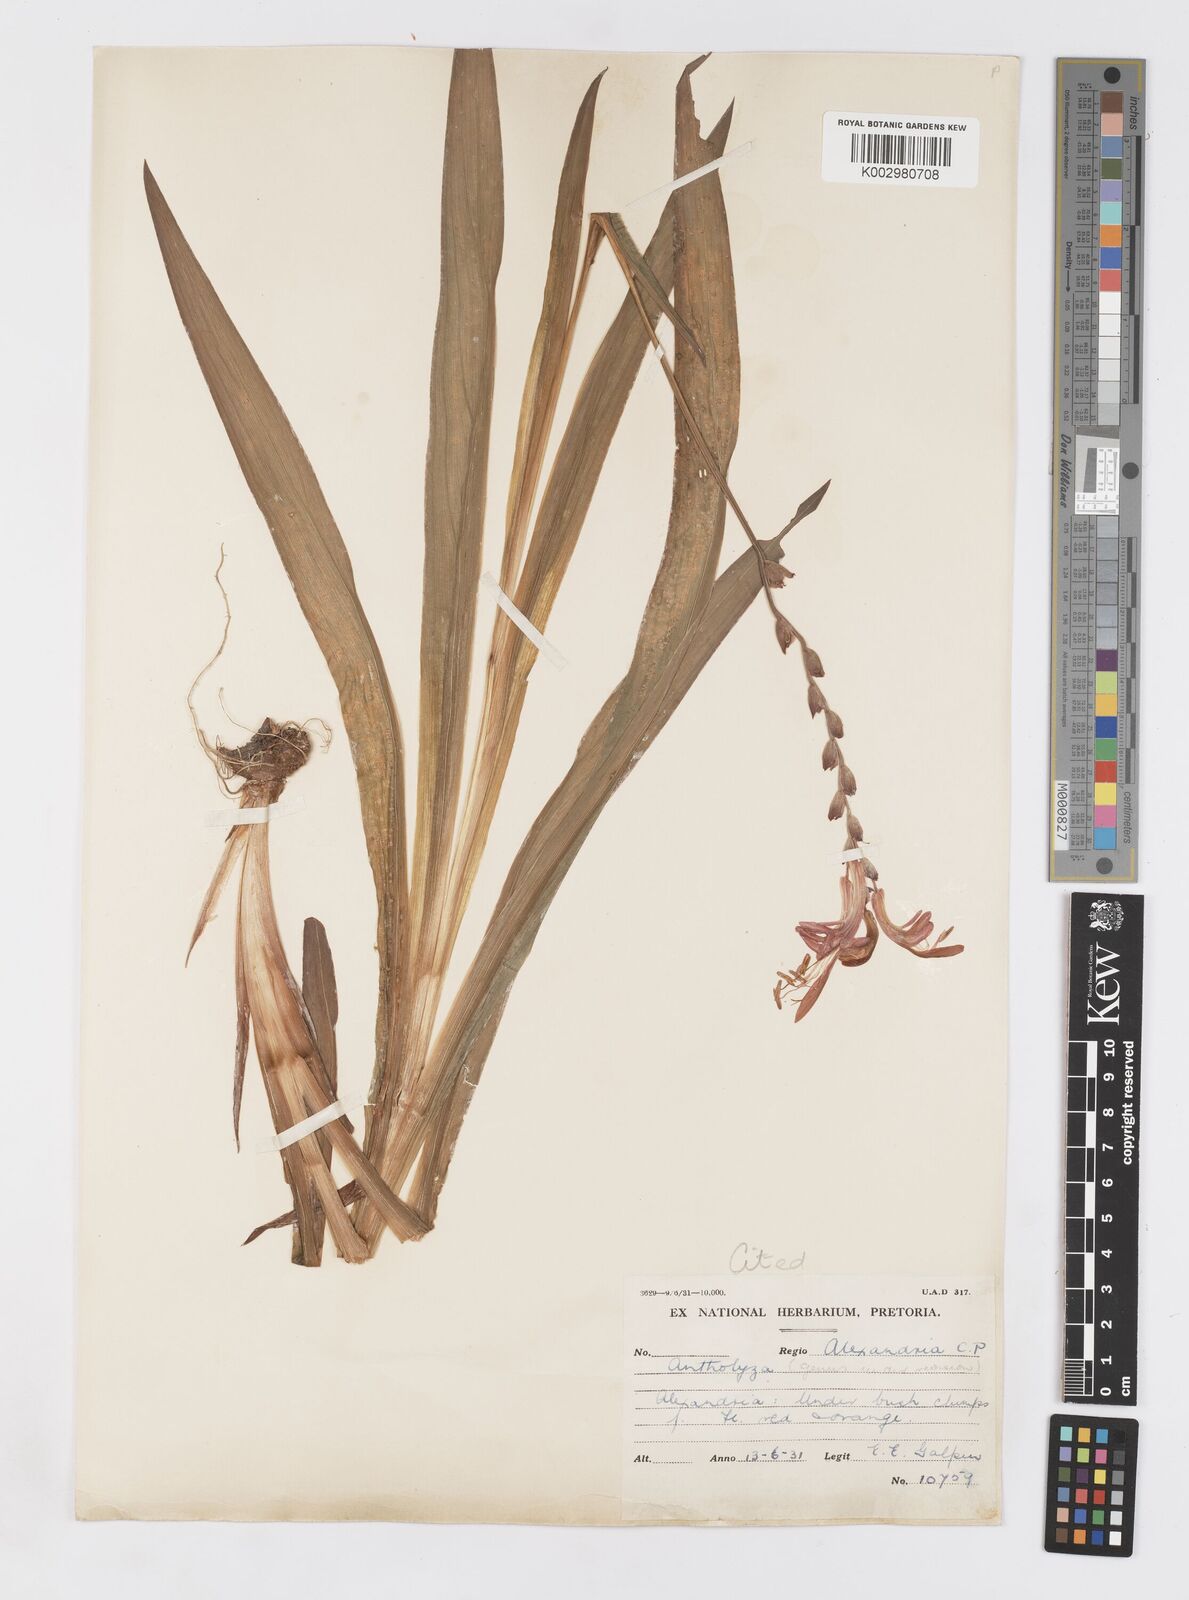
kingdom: Plantae
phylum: Tracheophyta
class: Liliopsida
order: Asparagales
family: Iridaceae
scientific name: Iridaceae
